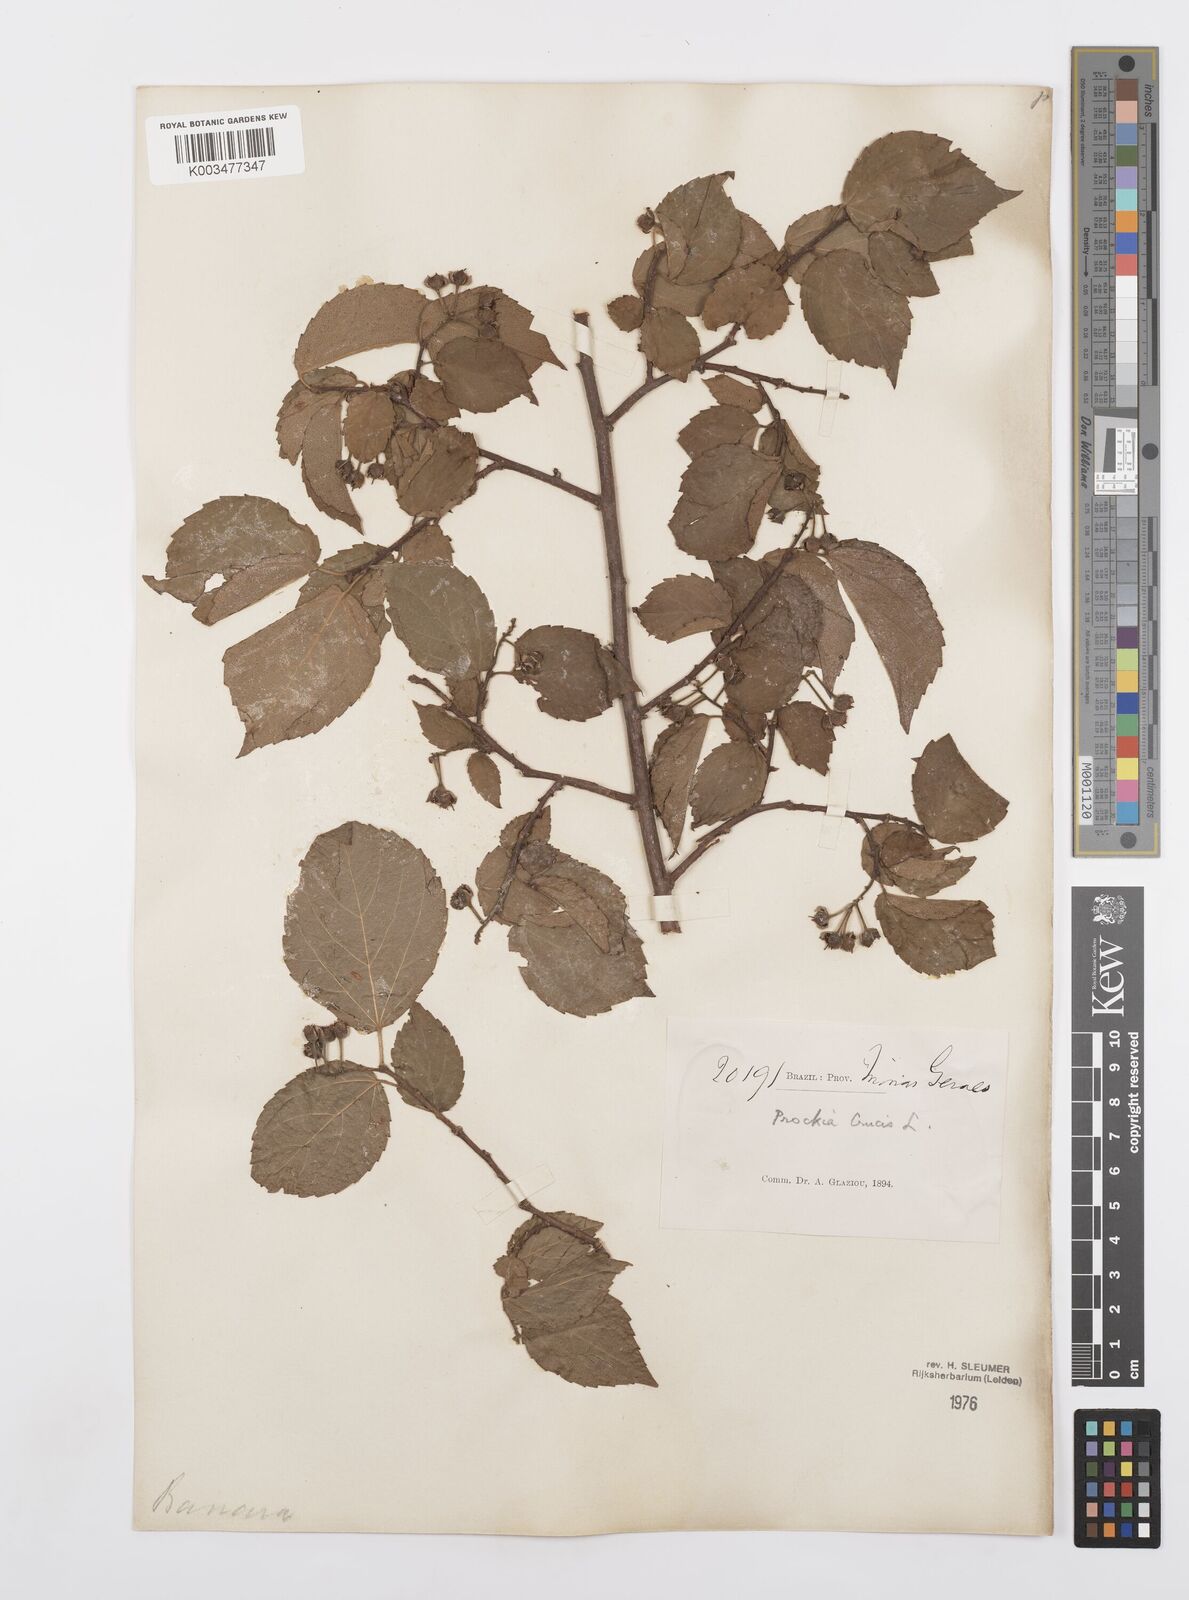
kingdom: Plantae
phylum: Tracheophyta
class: Magnoliopsida
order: Malpighiales
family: Salicaceae
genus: Prockia
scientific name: Prockia crucis
